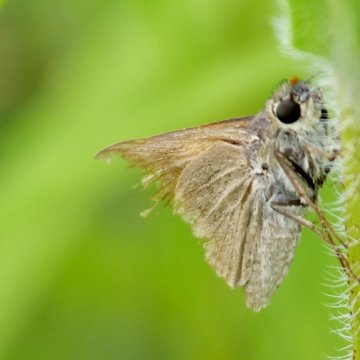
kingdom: Animalia
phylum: Arthropoda
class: Insecta
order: Lepidoptera
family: Hesperiidae
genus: Polites
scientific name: Polites egeremet
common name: Northern Broken-Dash
